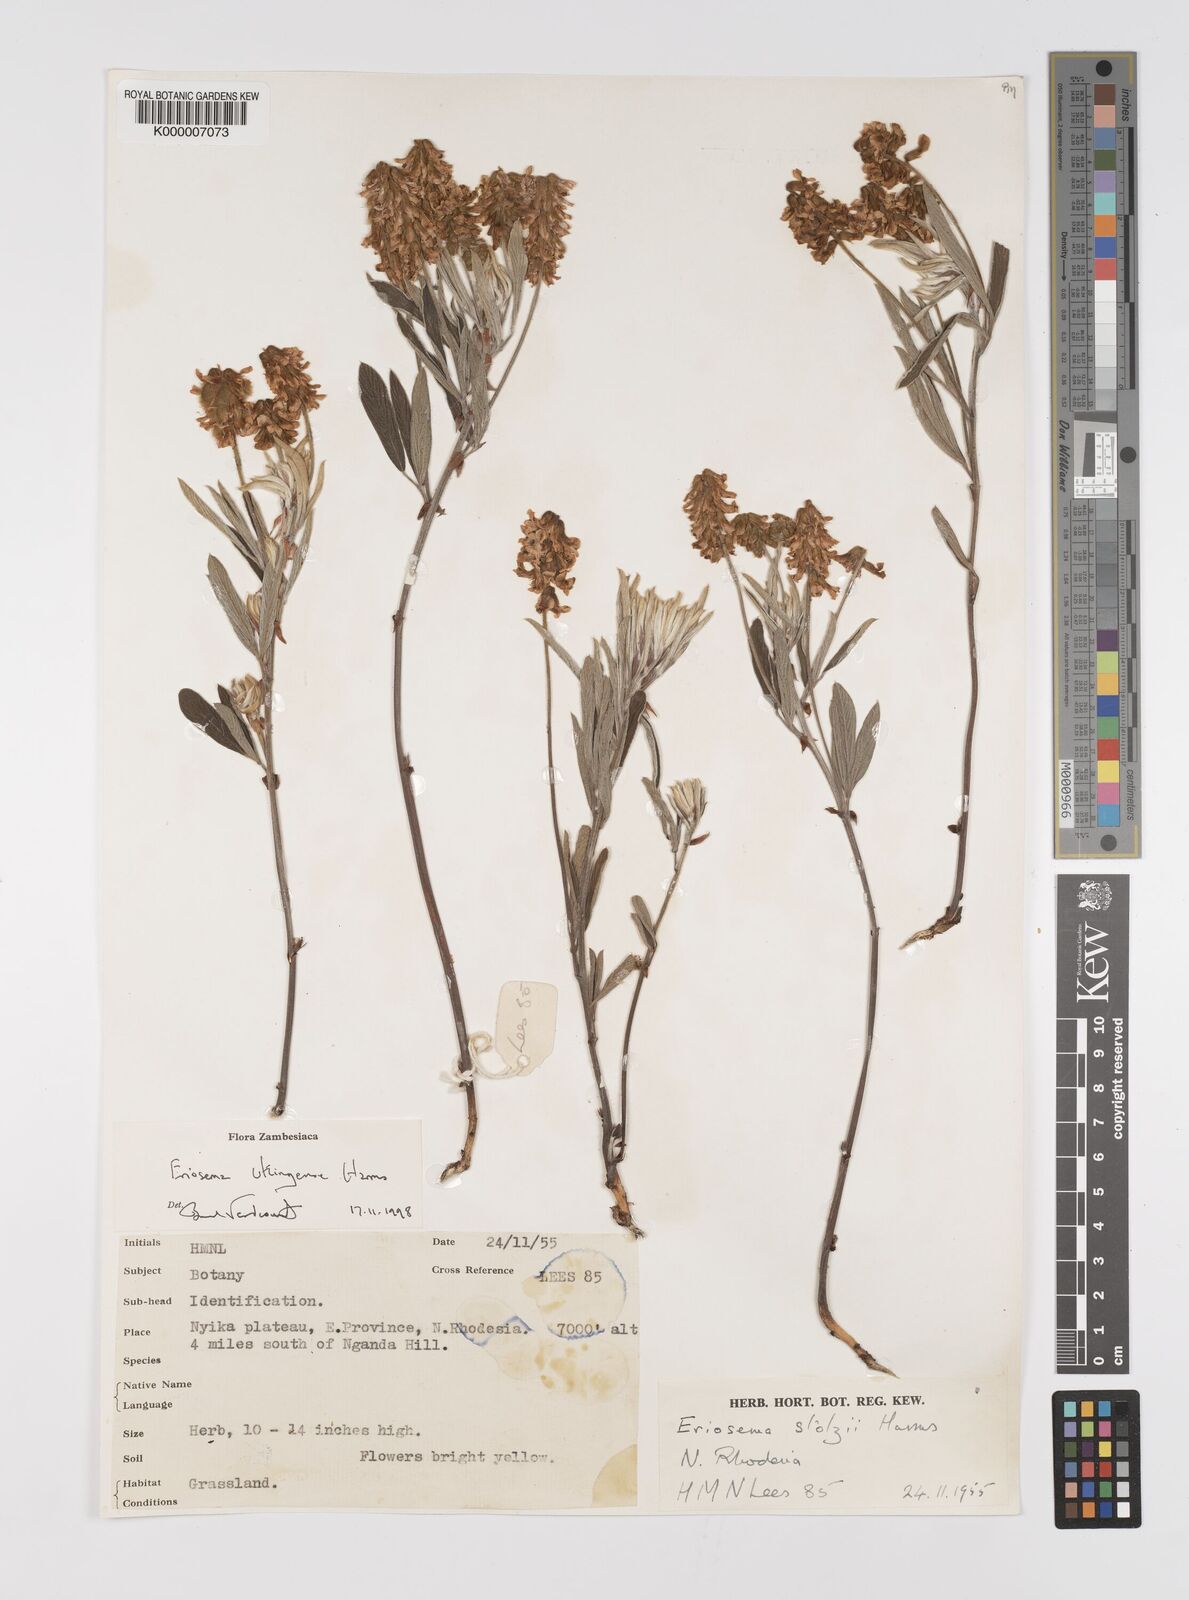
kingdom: Plantae
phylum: Tracheophyta
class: Magnoliopsida
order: Fabales
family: Fabaceae
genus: Eriosema
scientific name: Eriosema ukingense
